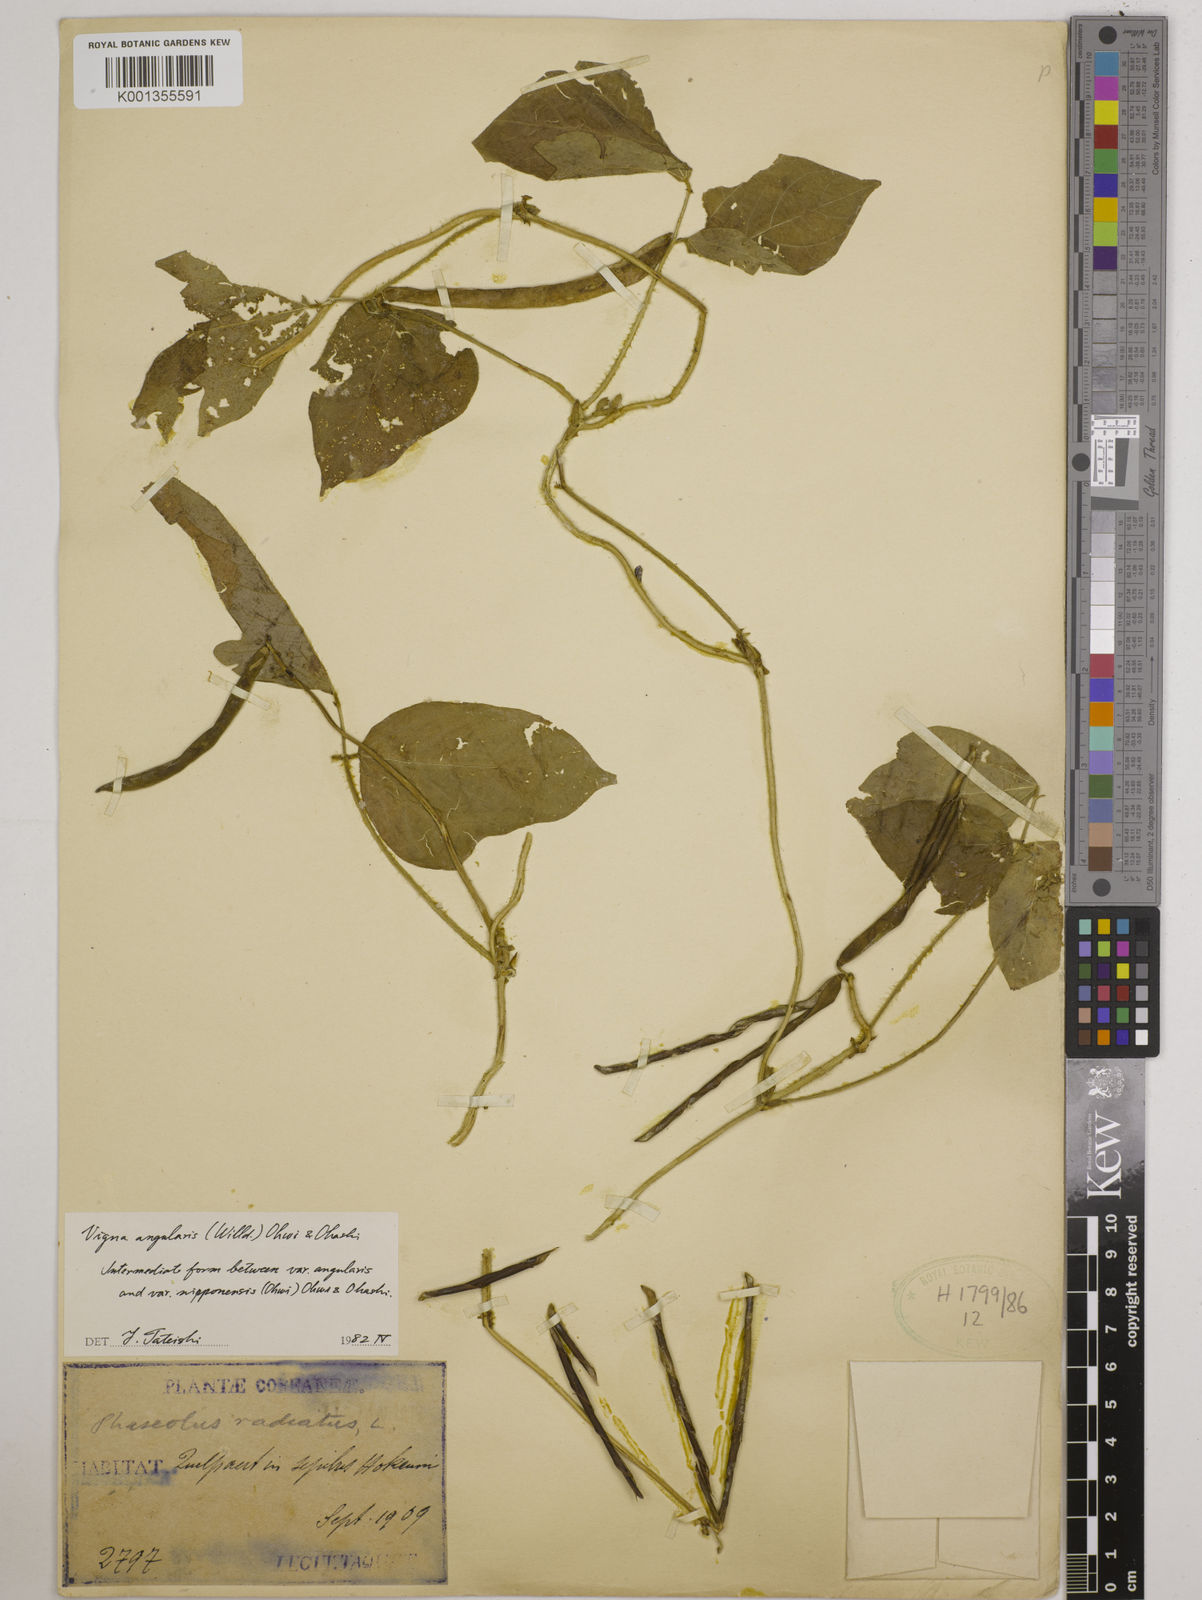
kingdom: Plantae
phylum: Tracheophyta
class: Magnoliopsida
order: Fabales
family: Fabaceae
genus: Vigna
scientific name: Vigna
